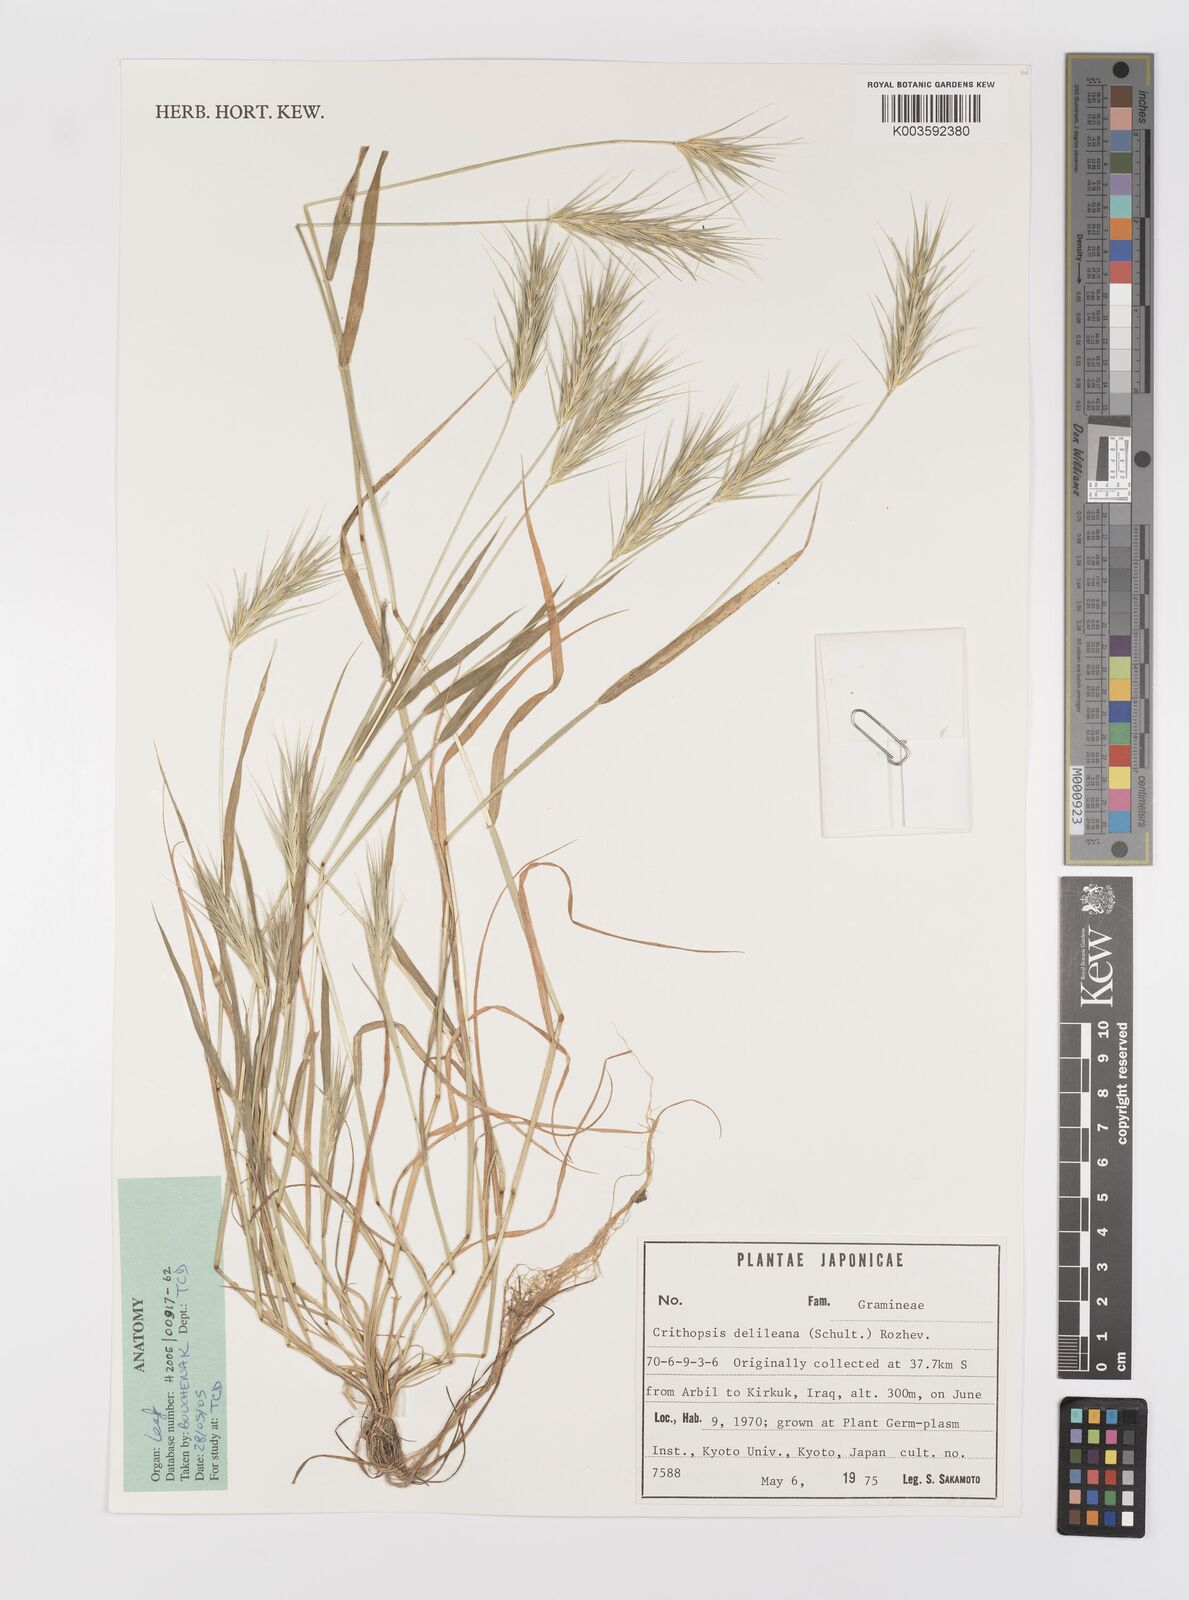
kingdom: Plantae
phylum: Tracheophyta
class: Liliopsida
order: Poales
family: Poaceae
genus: Crithopsis
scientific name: Crithopsis delileana
